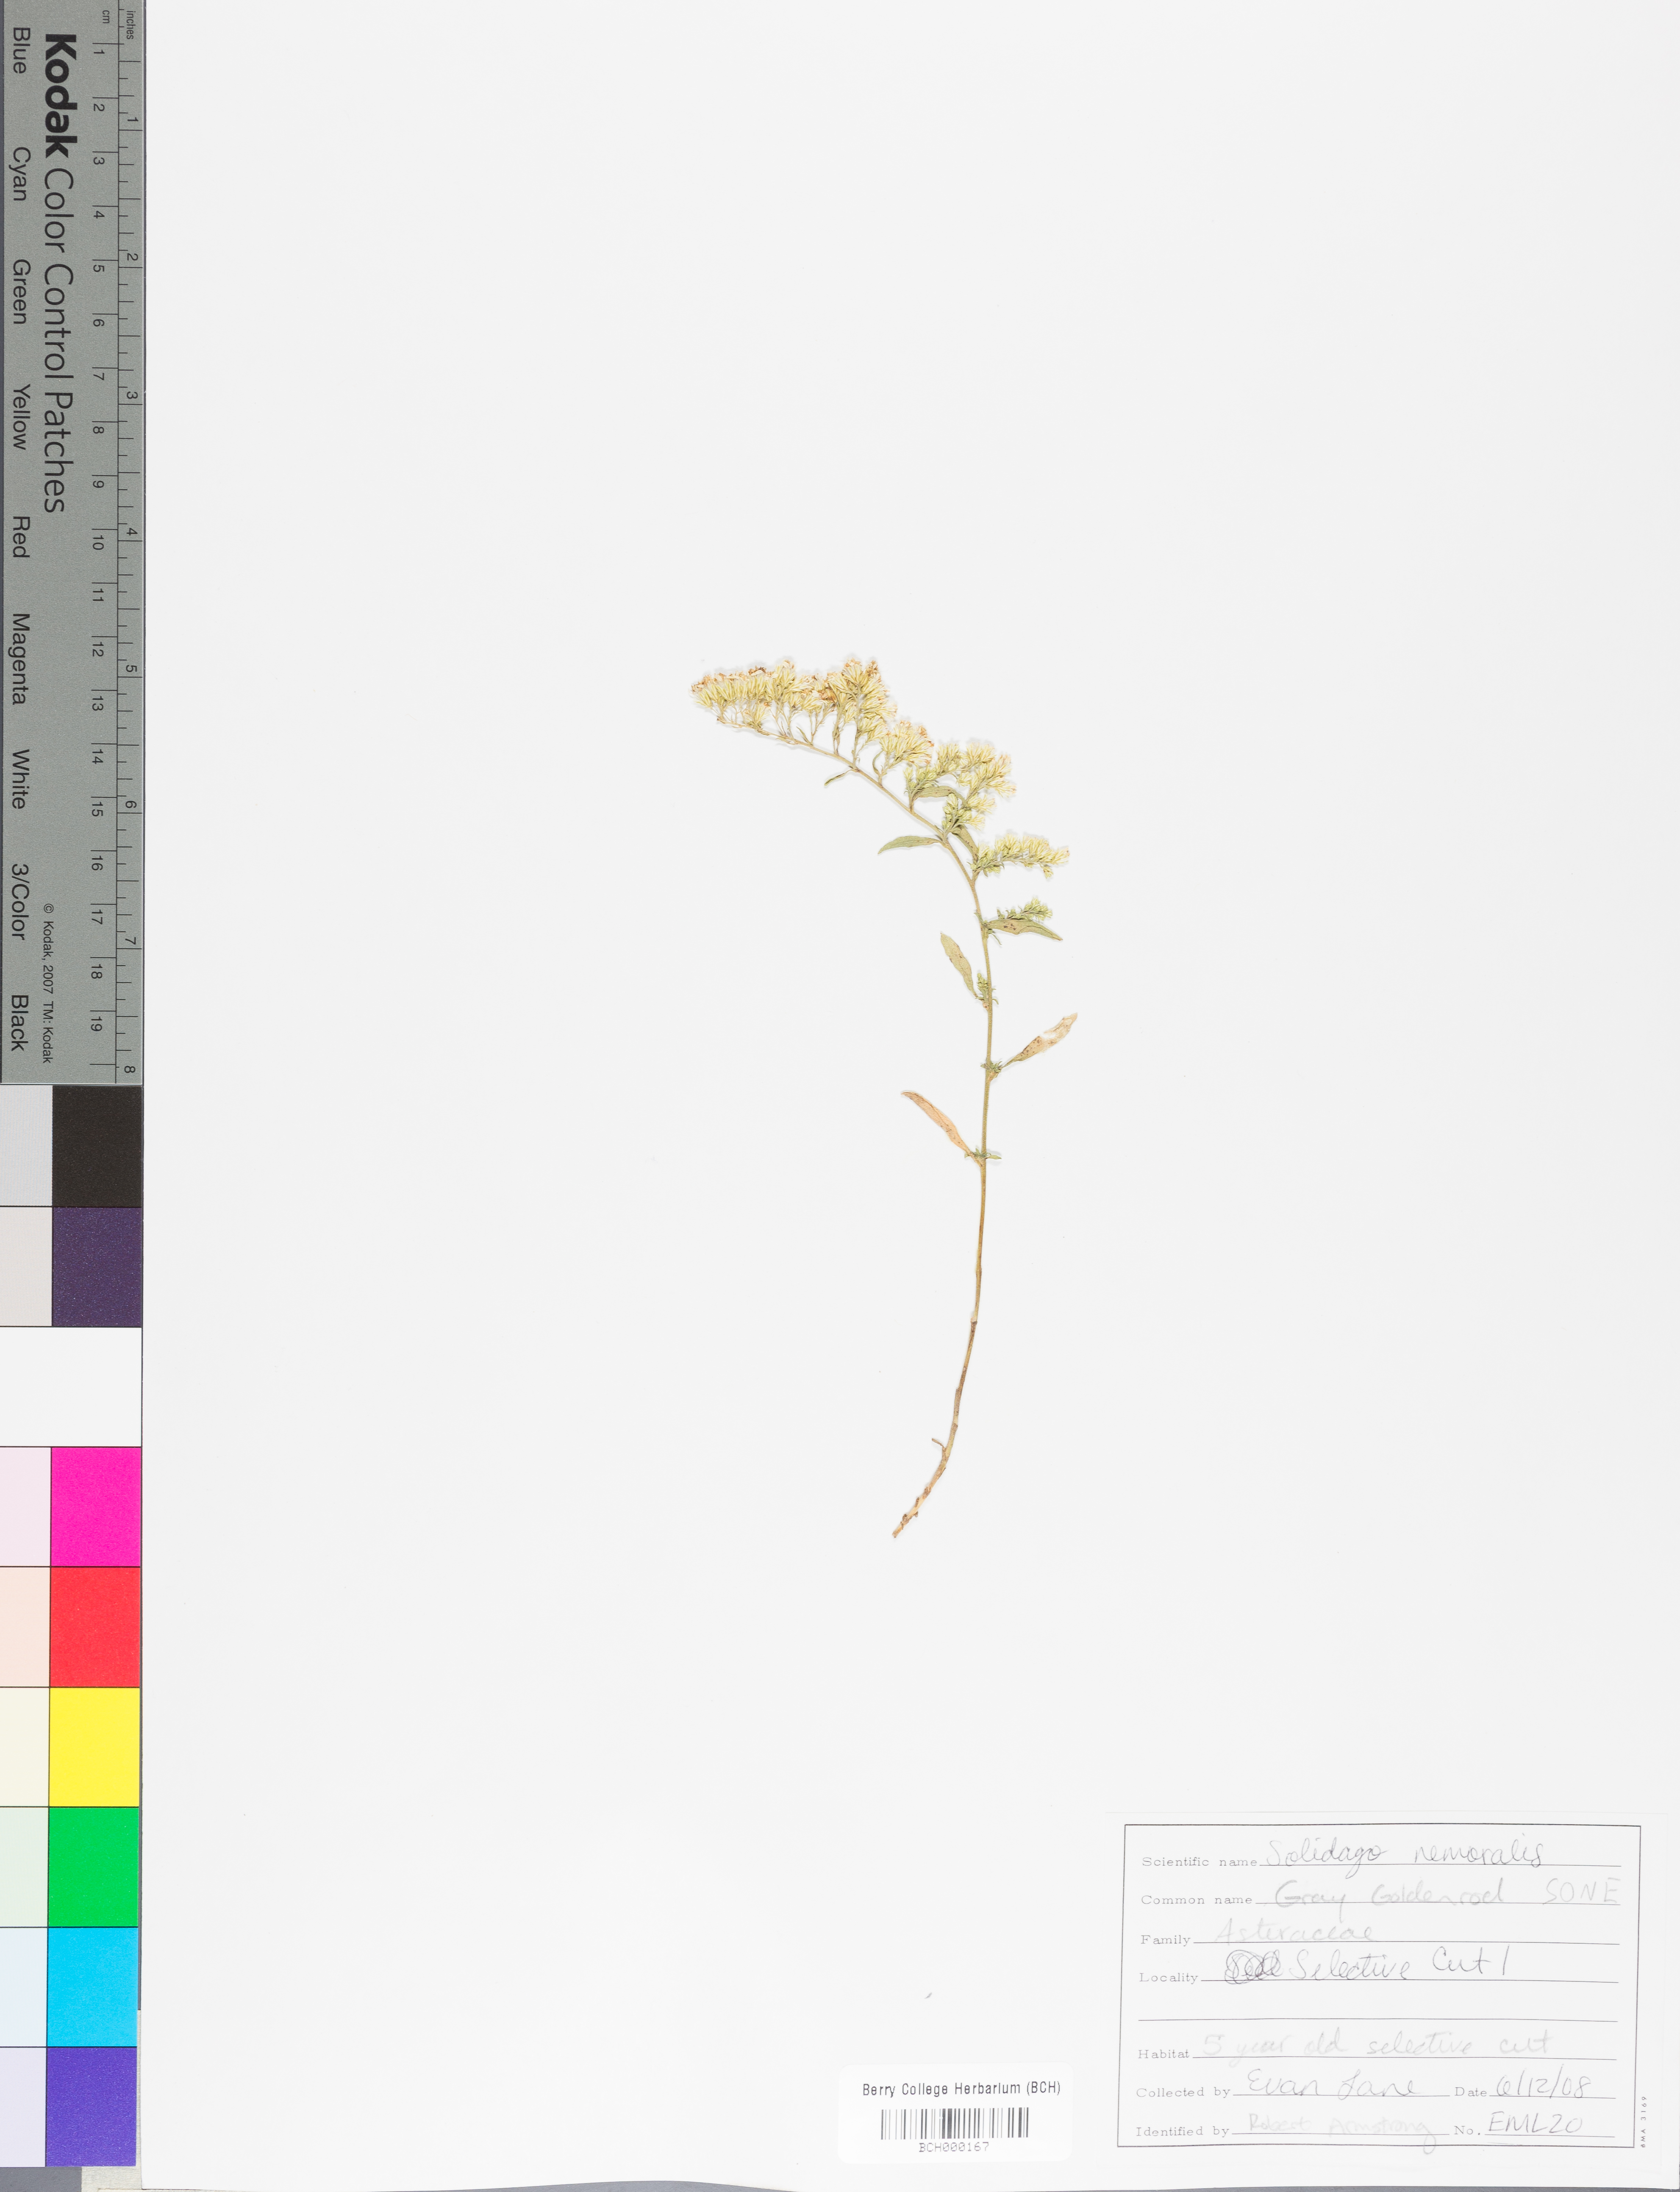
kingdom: Plantae
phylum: Tracheophyta
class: Magnoliopsida
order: Asterales
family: Asteraceae
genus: Solidago
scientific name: Solidago nemoralis
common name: Grey goldenrod
